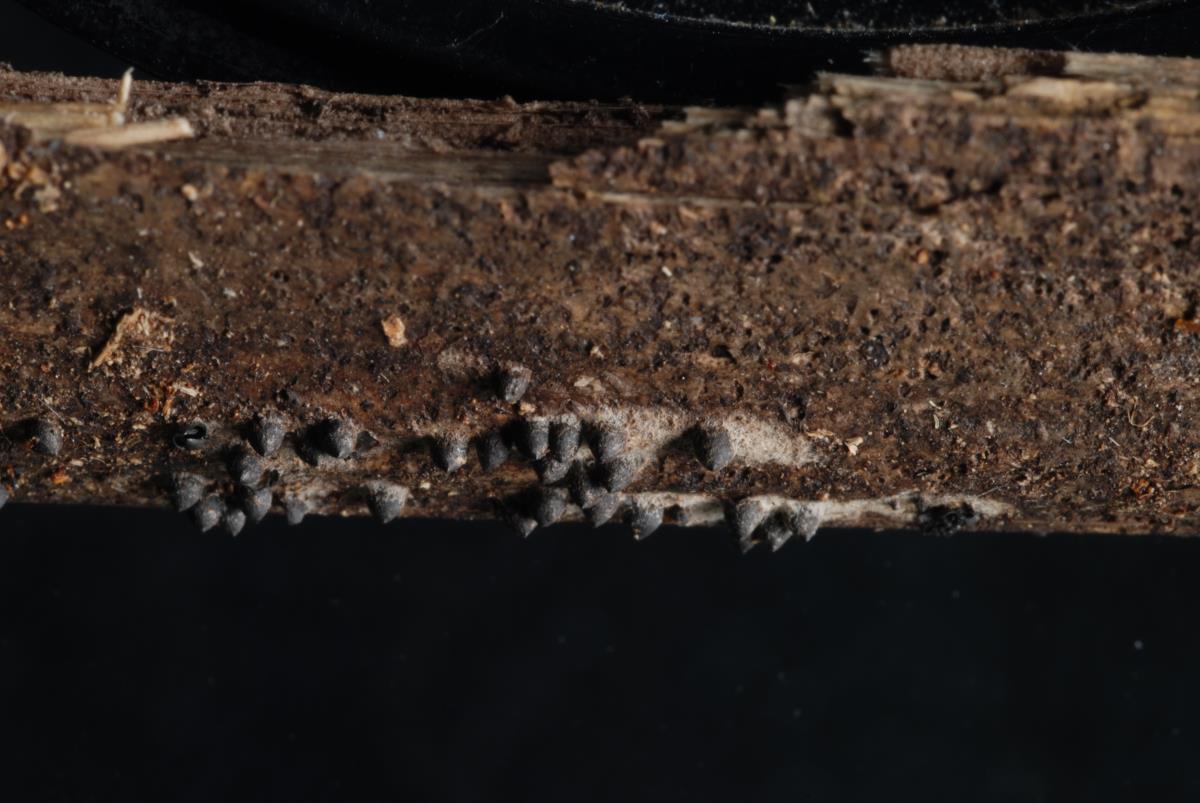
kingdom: Fungi
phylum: Ascomycota
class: Sordariomycetes
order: Xylariales
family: Xylariaceae
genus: Rosellinia
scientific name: Rosellinia longispora
